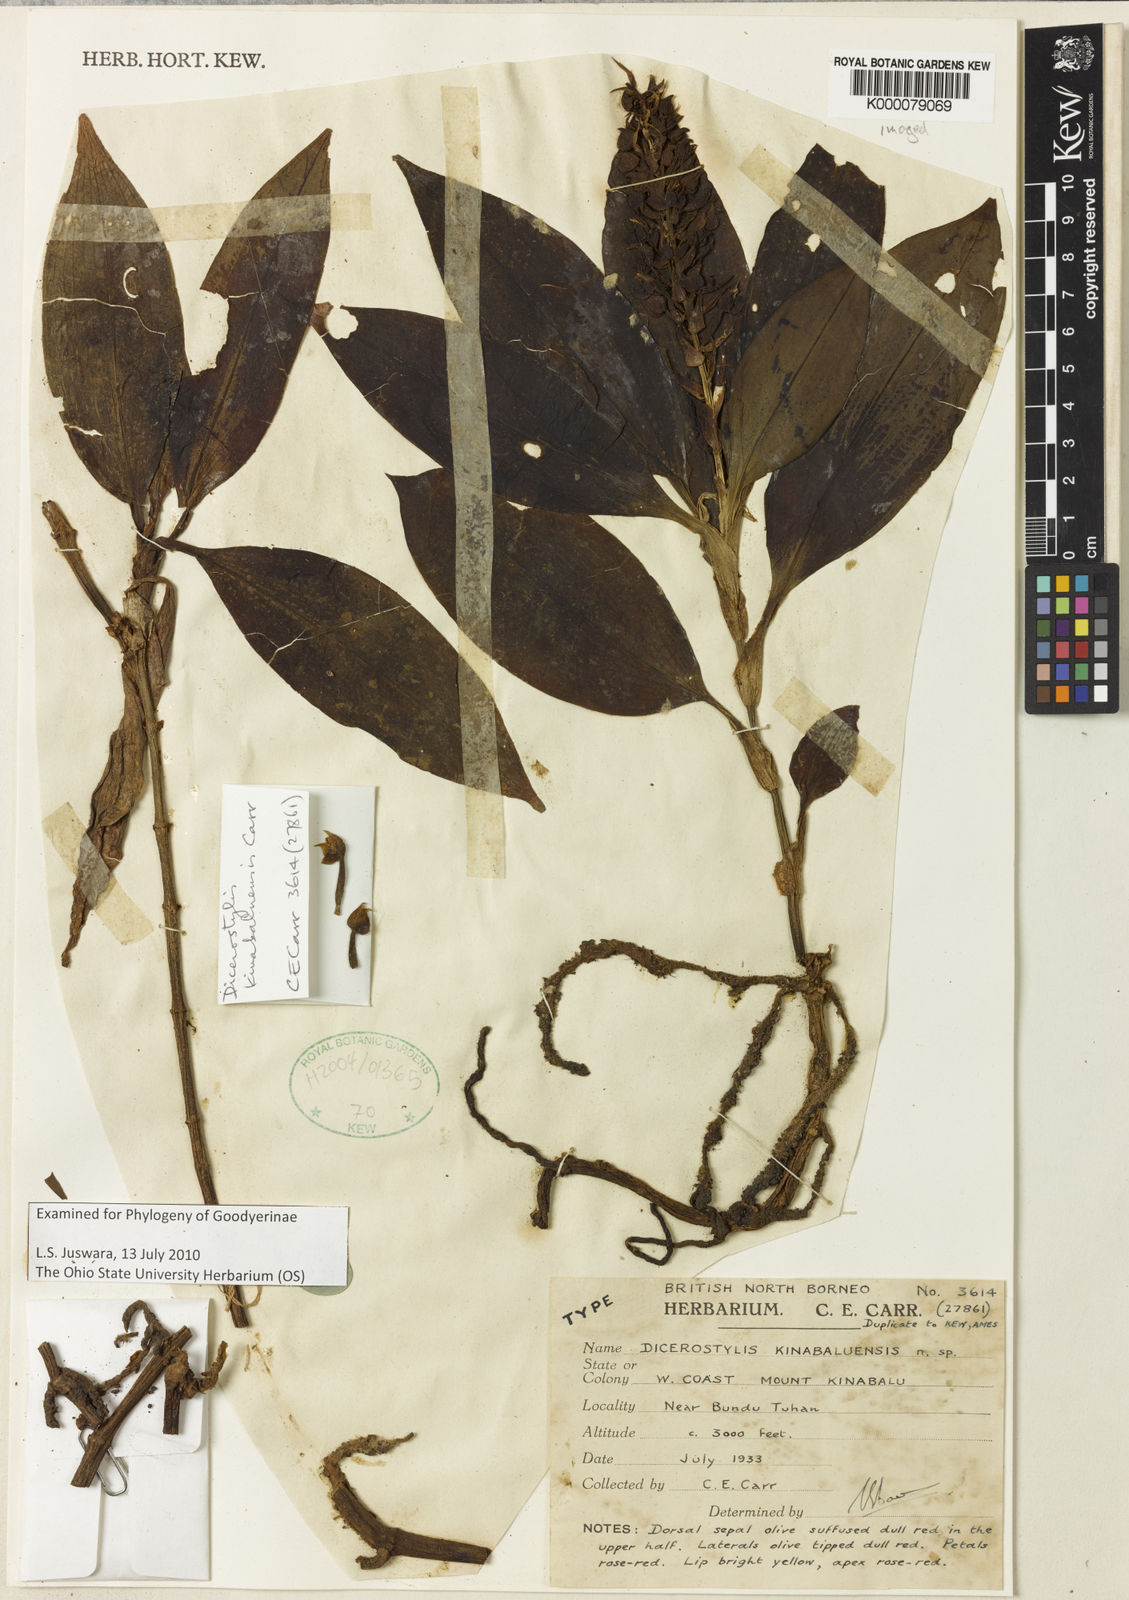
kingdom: Plantae
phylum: Tracheophyta
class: Liliopsida
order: Asparagales
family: Orchidaceae
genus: Hylophila
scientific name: Hylophila lanceolata
